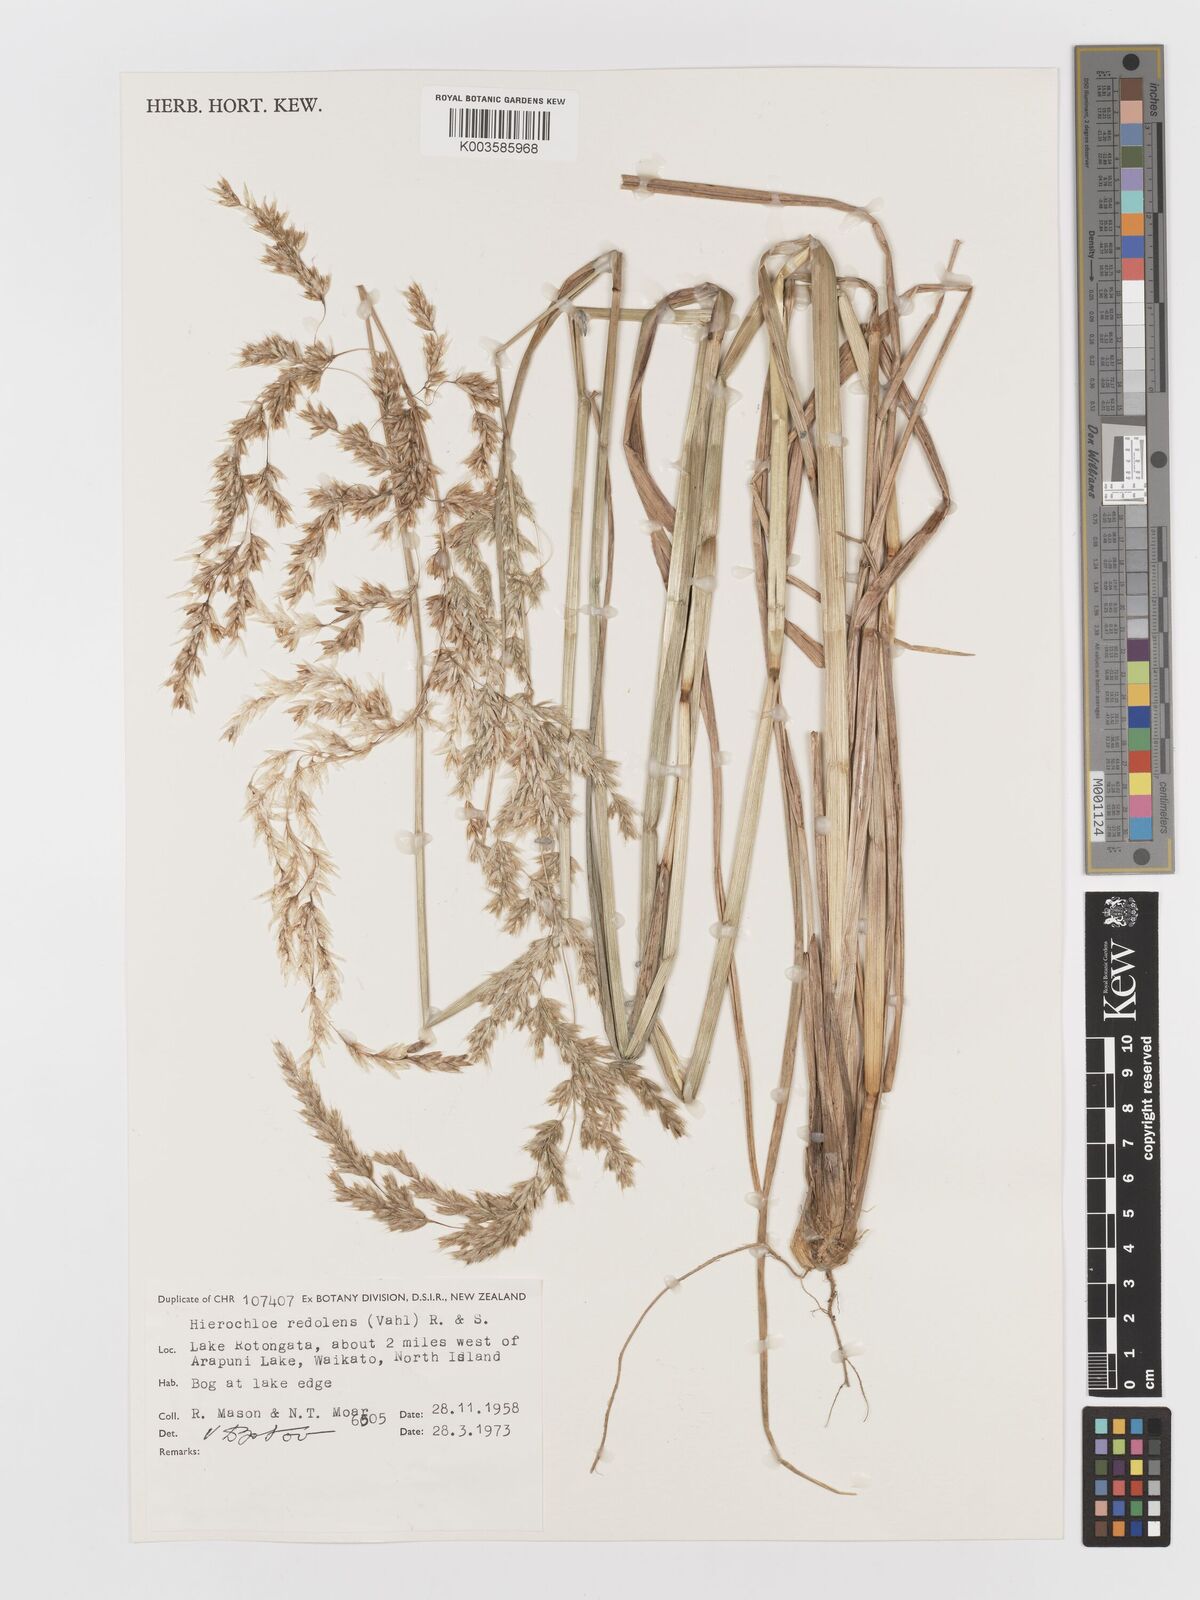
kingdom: Plantae
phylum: Tracheophyta
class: Liliopsida
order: Poales
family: Poaceae
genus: Anthoxanthum
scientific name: Anthoxanthum redolens
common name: Sweet holy grass
